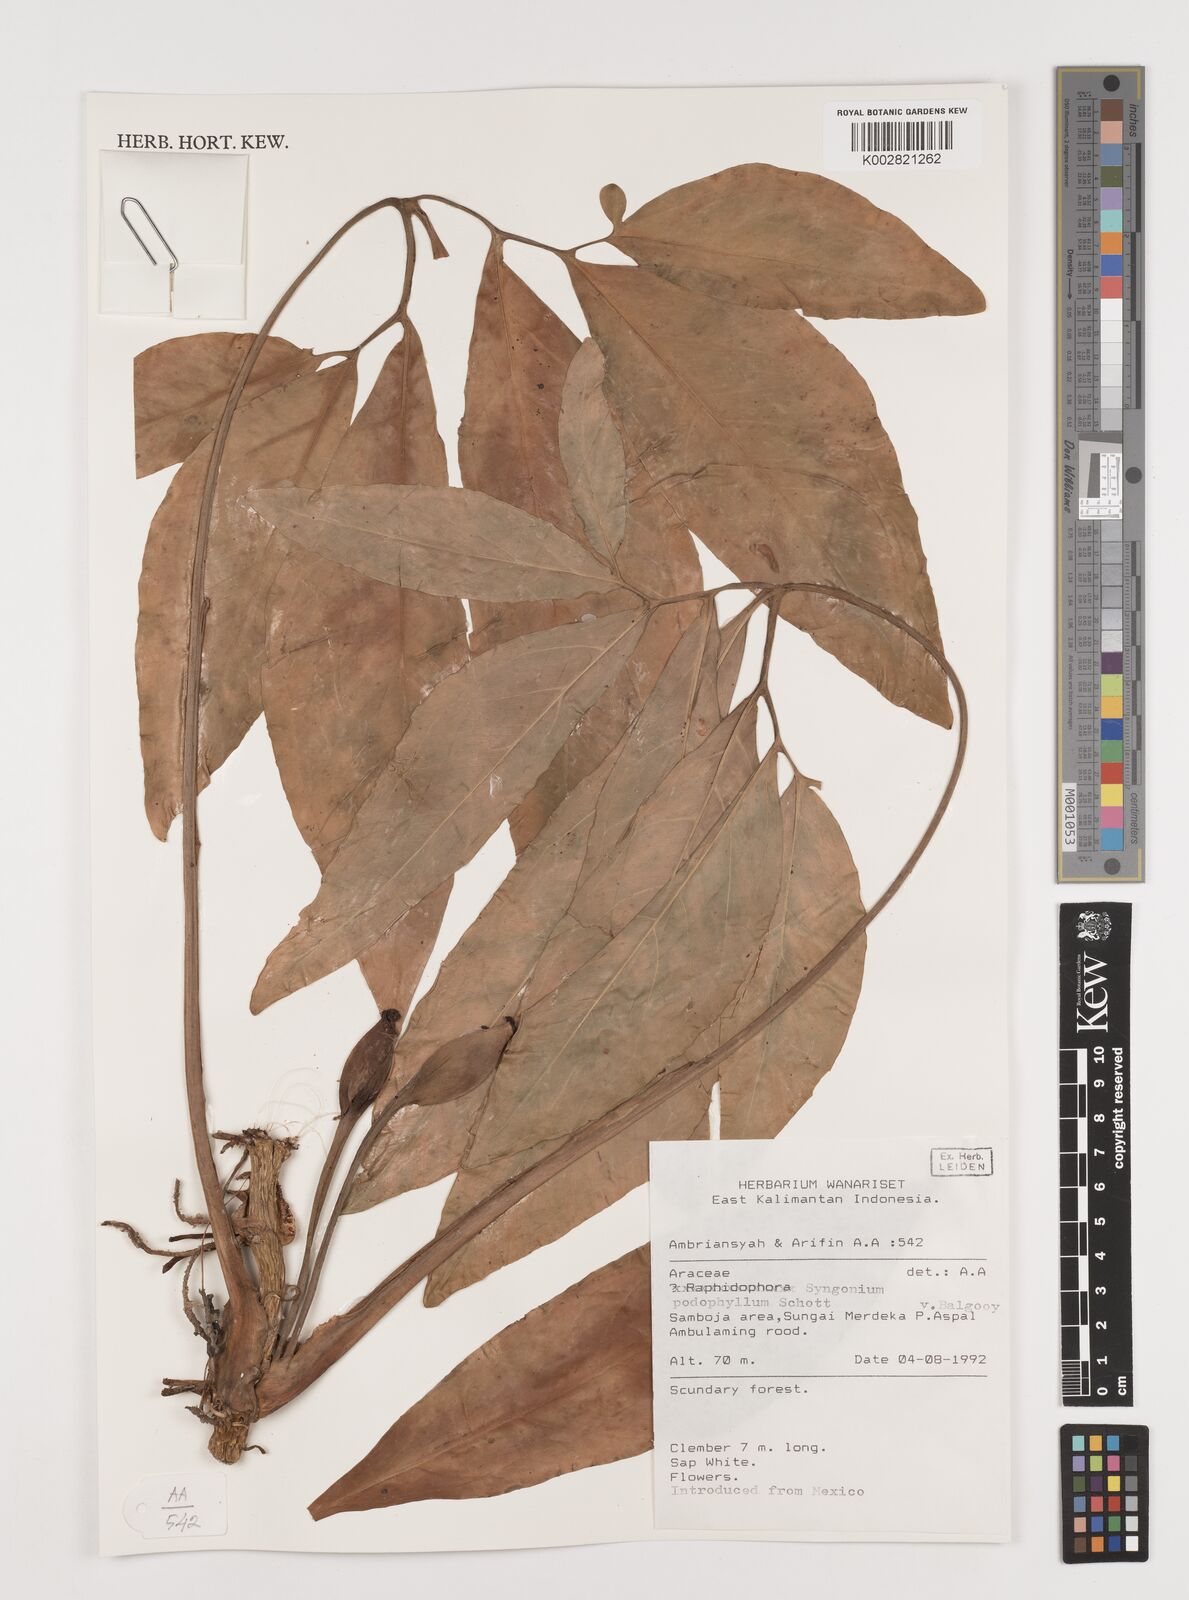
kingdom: Plantae
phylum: Tracheophyta
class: Liliopsida
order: Alismatales
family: Araceae
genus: Syngonium
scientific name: Syngonium podophyllum
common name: American evergreen
